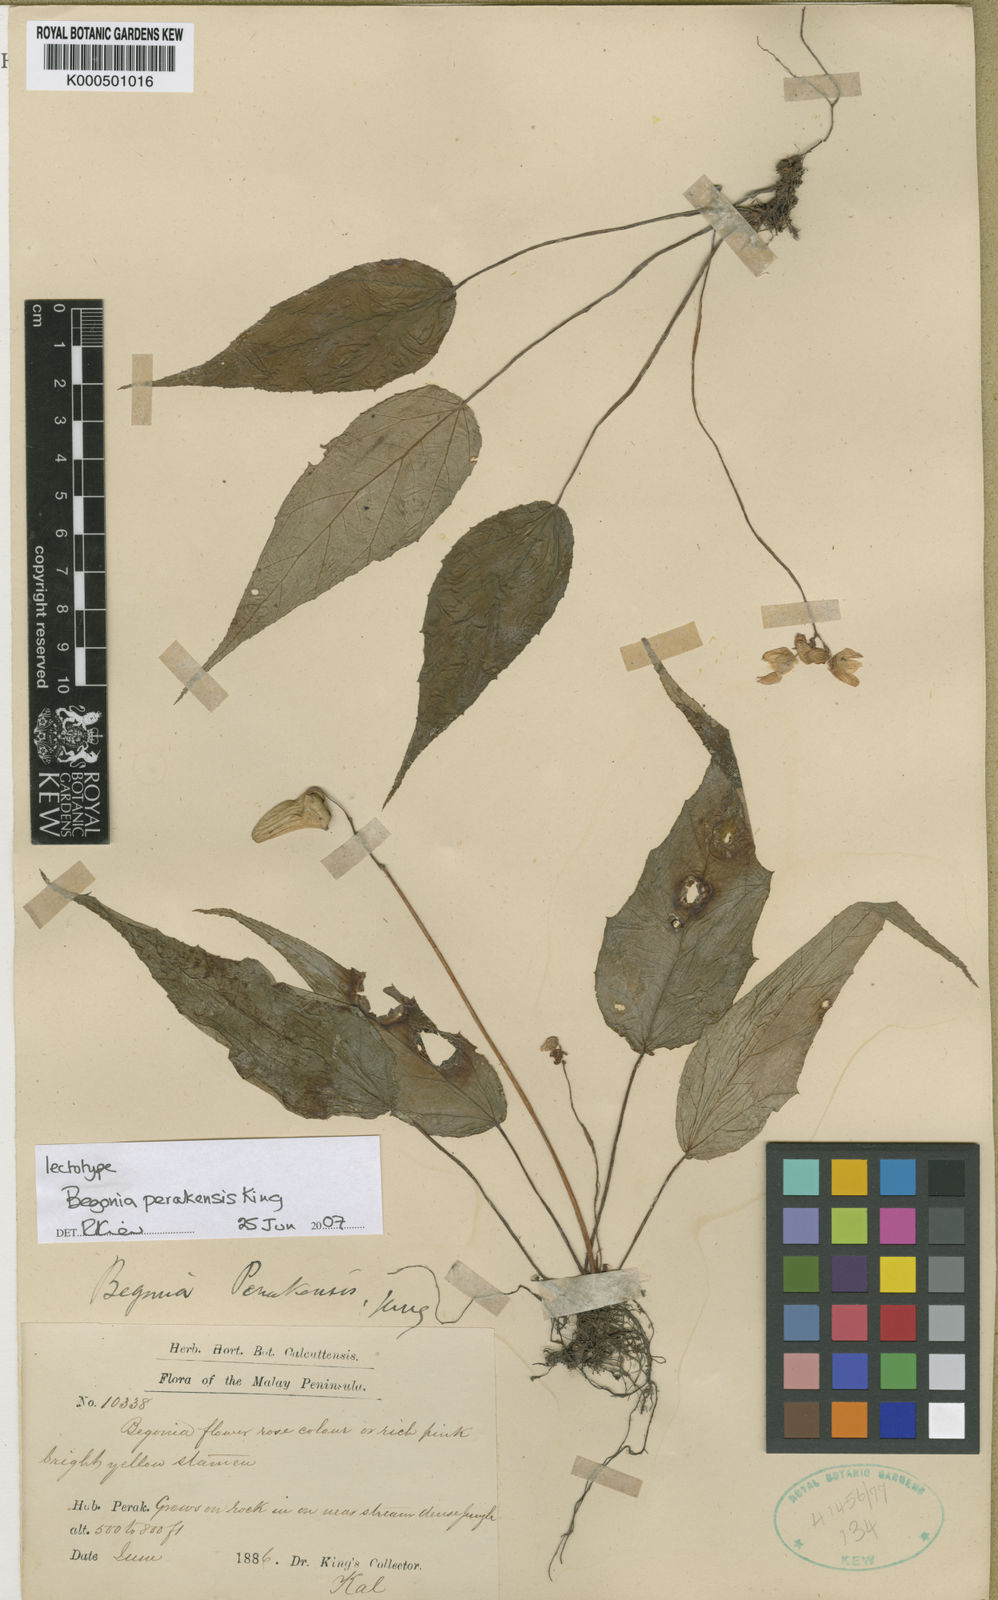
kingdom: Plantae
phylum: Tracheophyta
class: Magnoliopsida
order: Cucurbitales
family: Begoniaceae
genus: Begonia
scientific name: Begonia perakensis
